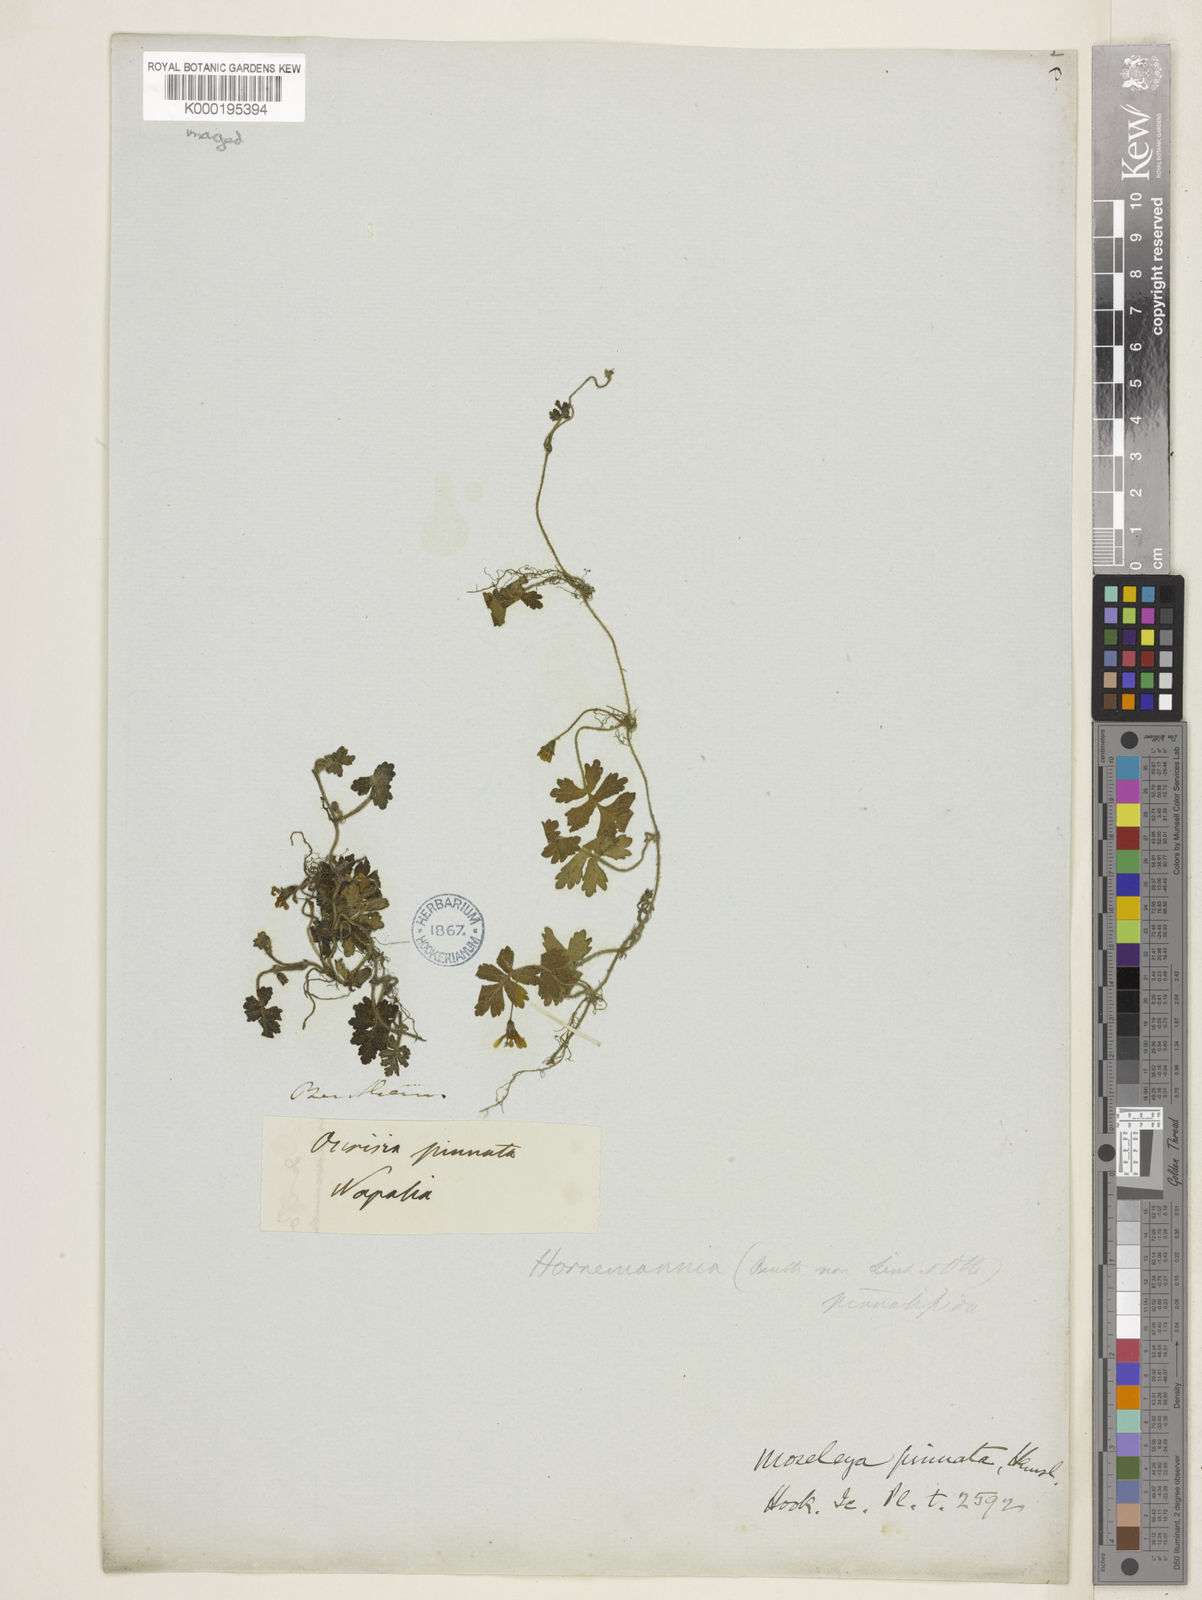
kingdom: Plantae
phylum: Tracheophyta
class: Magnoliopsida
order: Lamiales
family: Plantaginaceae
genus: Ellisiophyllum
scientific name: Ellisiophyllum pinnatum
